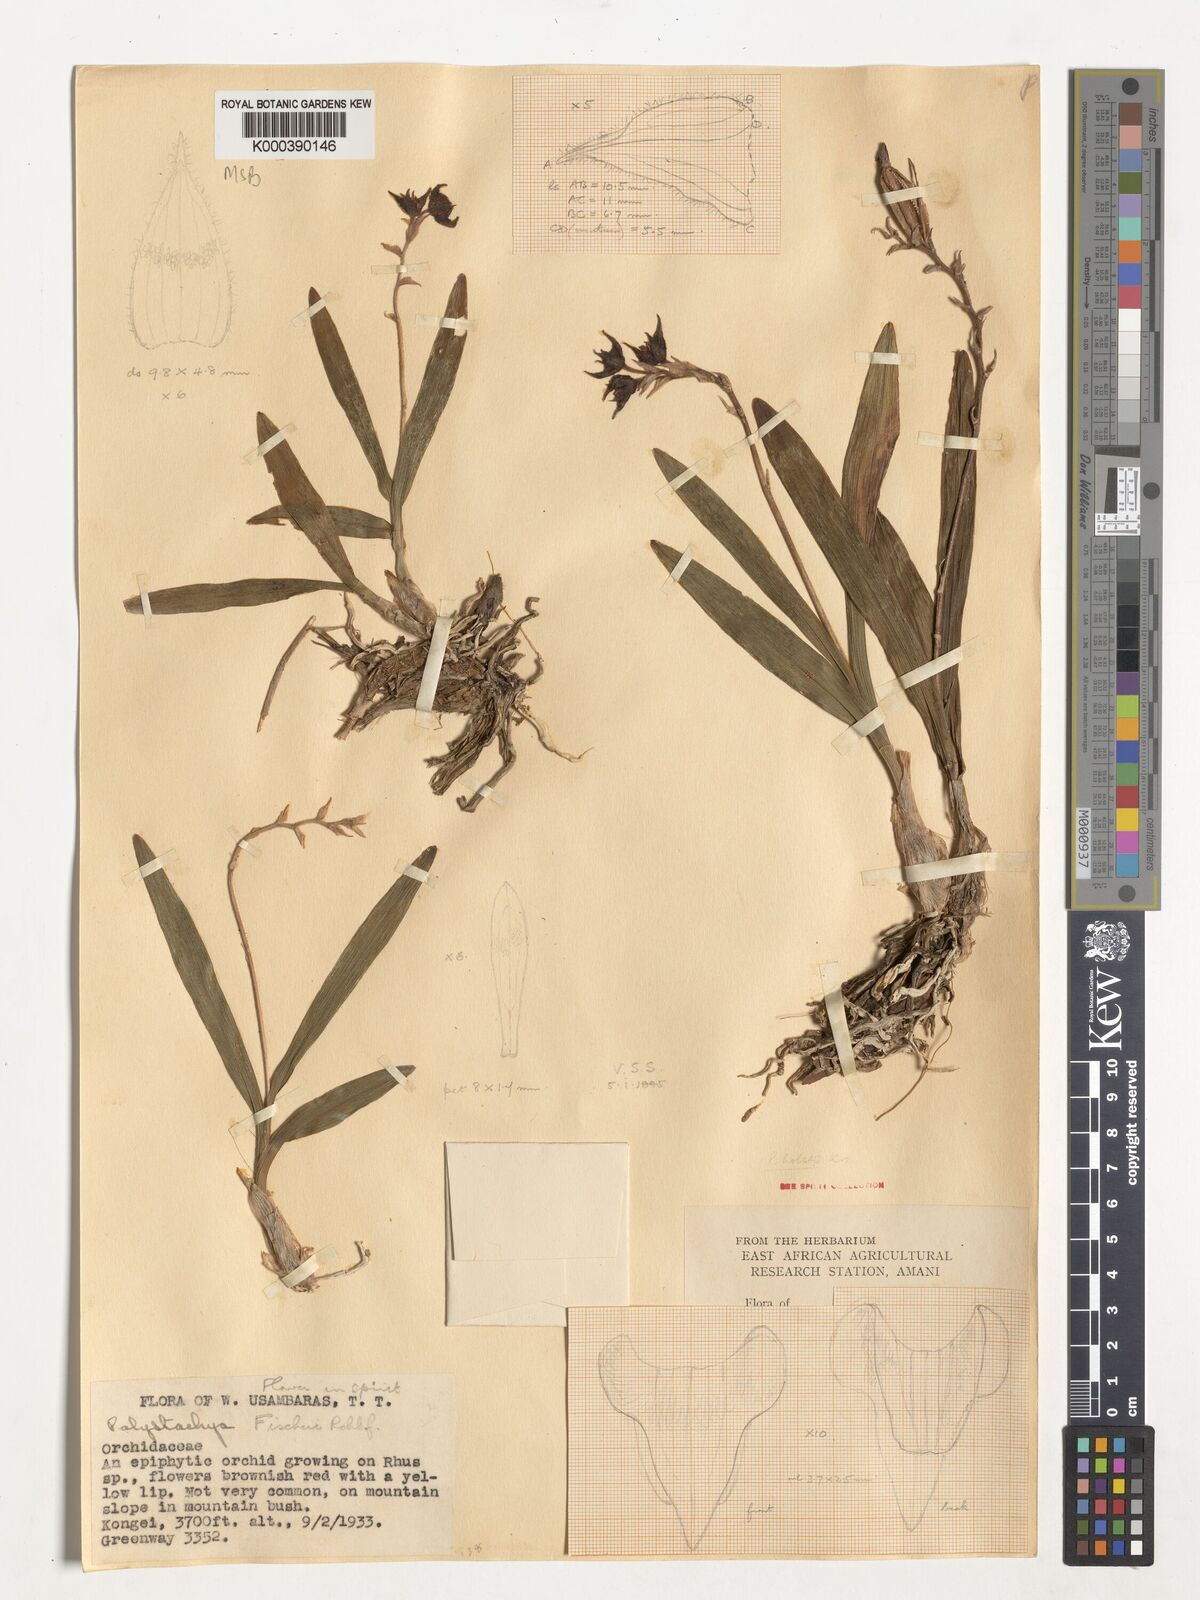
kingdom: Plantae
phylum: Tracheophyta
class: Liliopsida
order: Asparagales
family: Orchidaceae
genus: Polystachya
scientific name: Polystachya holstii
